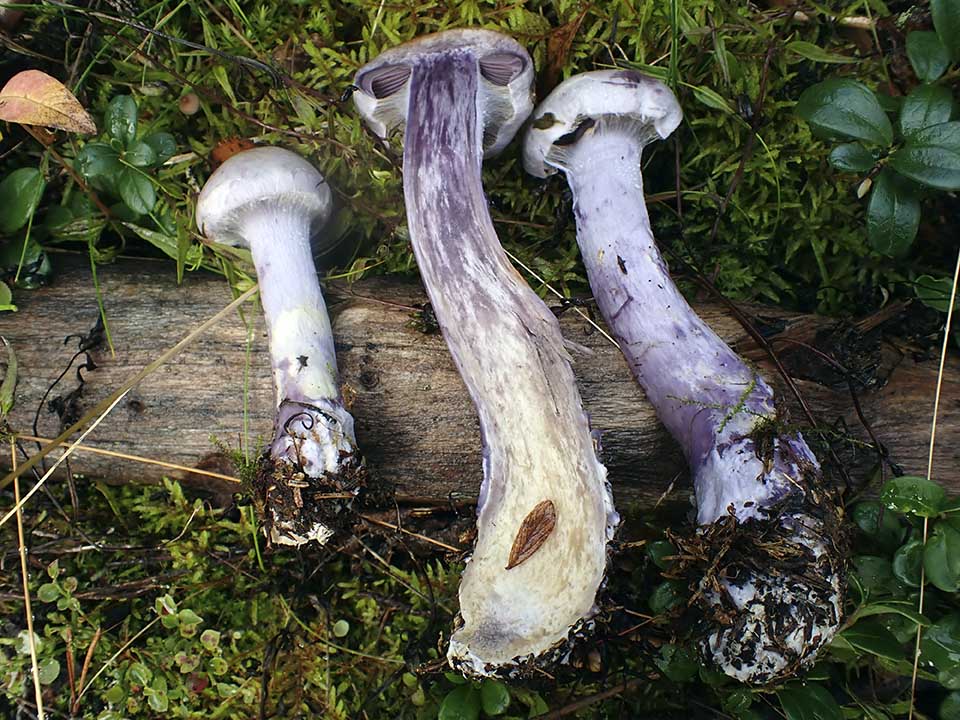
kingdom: Fungi
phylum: Basidiomycota
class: Agaricomycetes
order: Agaricales
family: Cortinariaceae
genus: Cortinarius
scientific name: Cortinarius camphoratus
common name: stinkende slørhat
